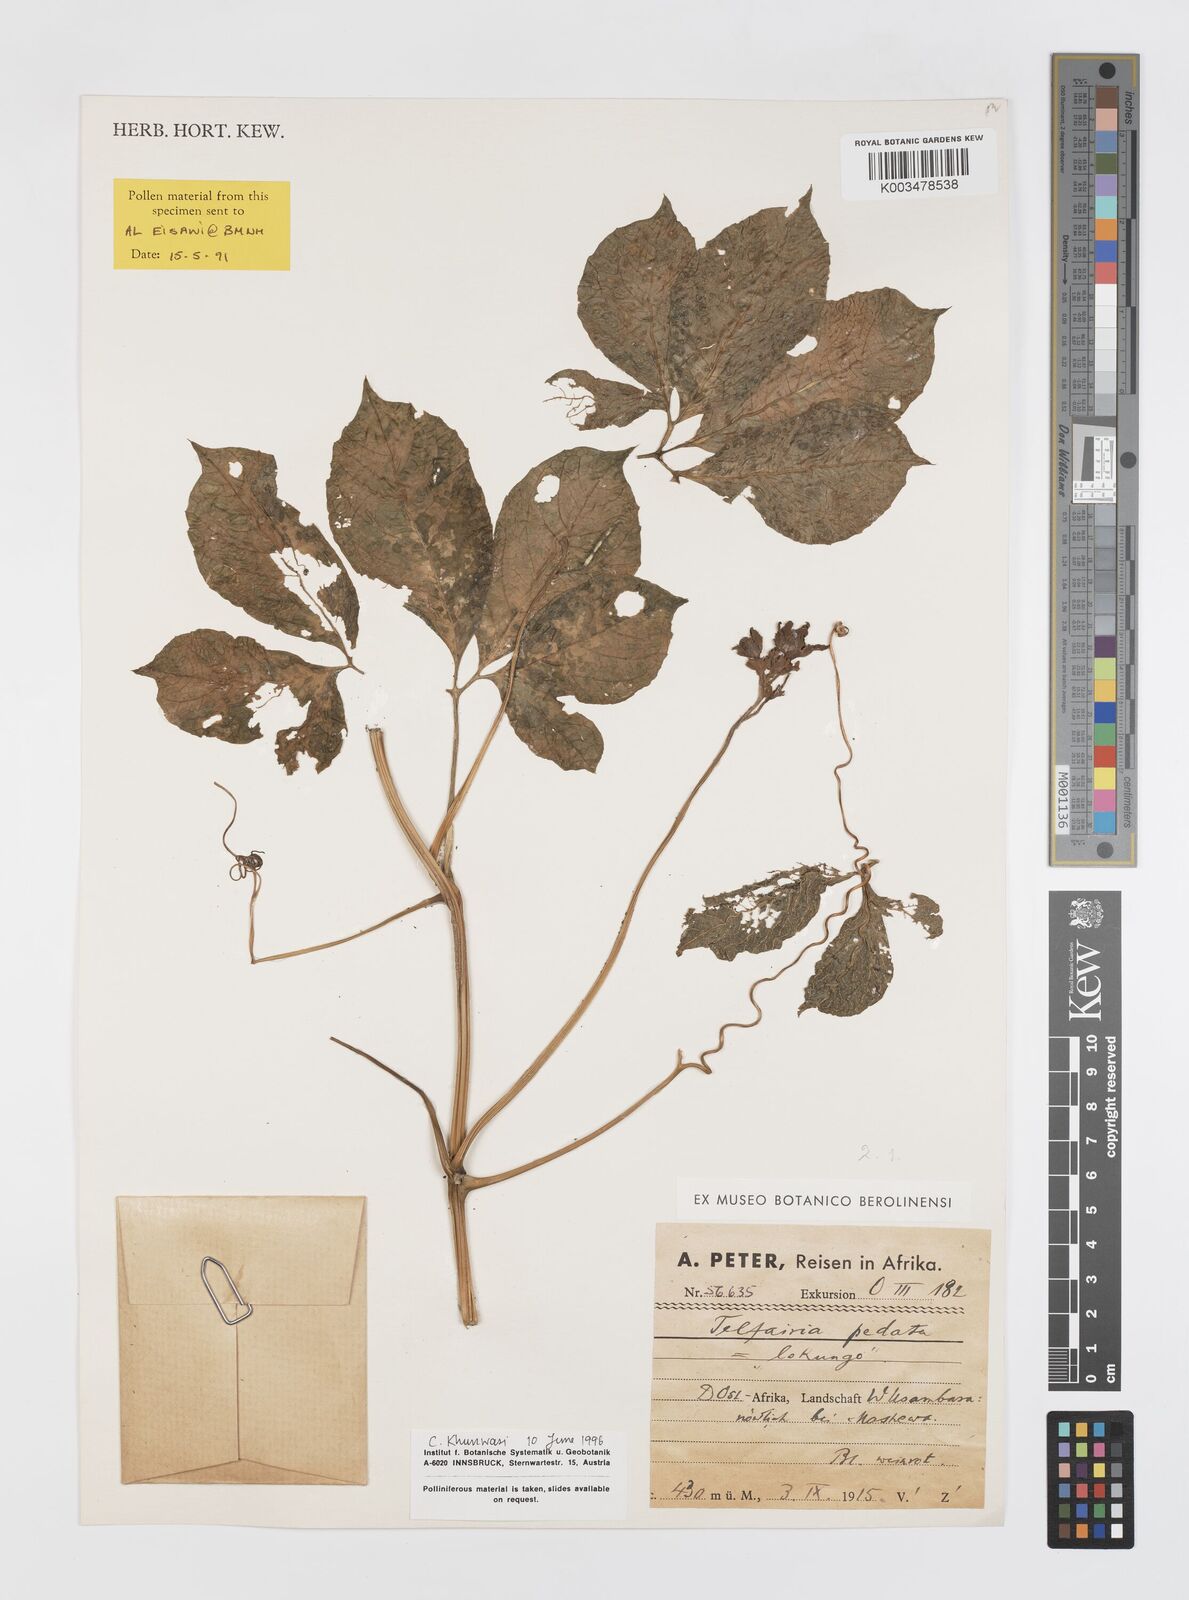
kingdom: Plantae
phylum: Tracheophyta
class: Magnoliopsida
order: Cucurbitales
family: Cucurbitaceae
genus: Telfairia
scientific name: Telfairia pedata
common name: Zanzibar oilvine
